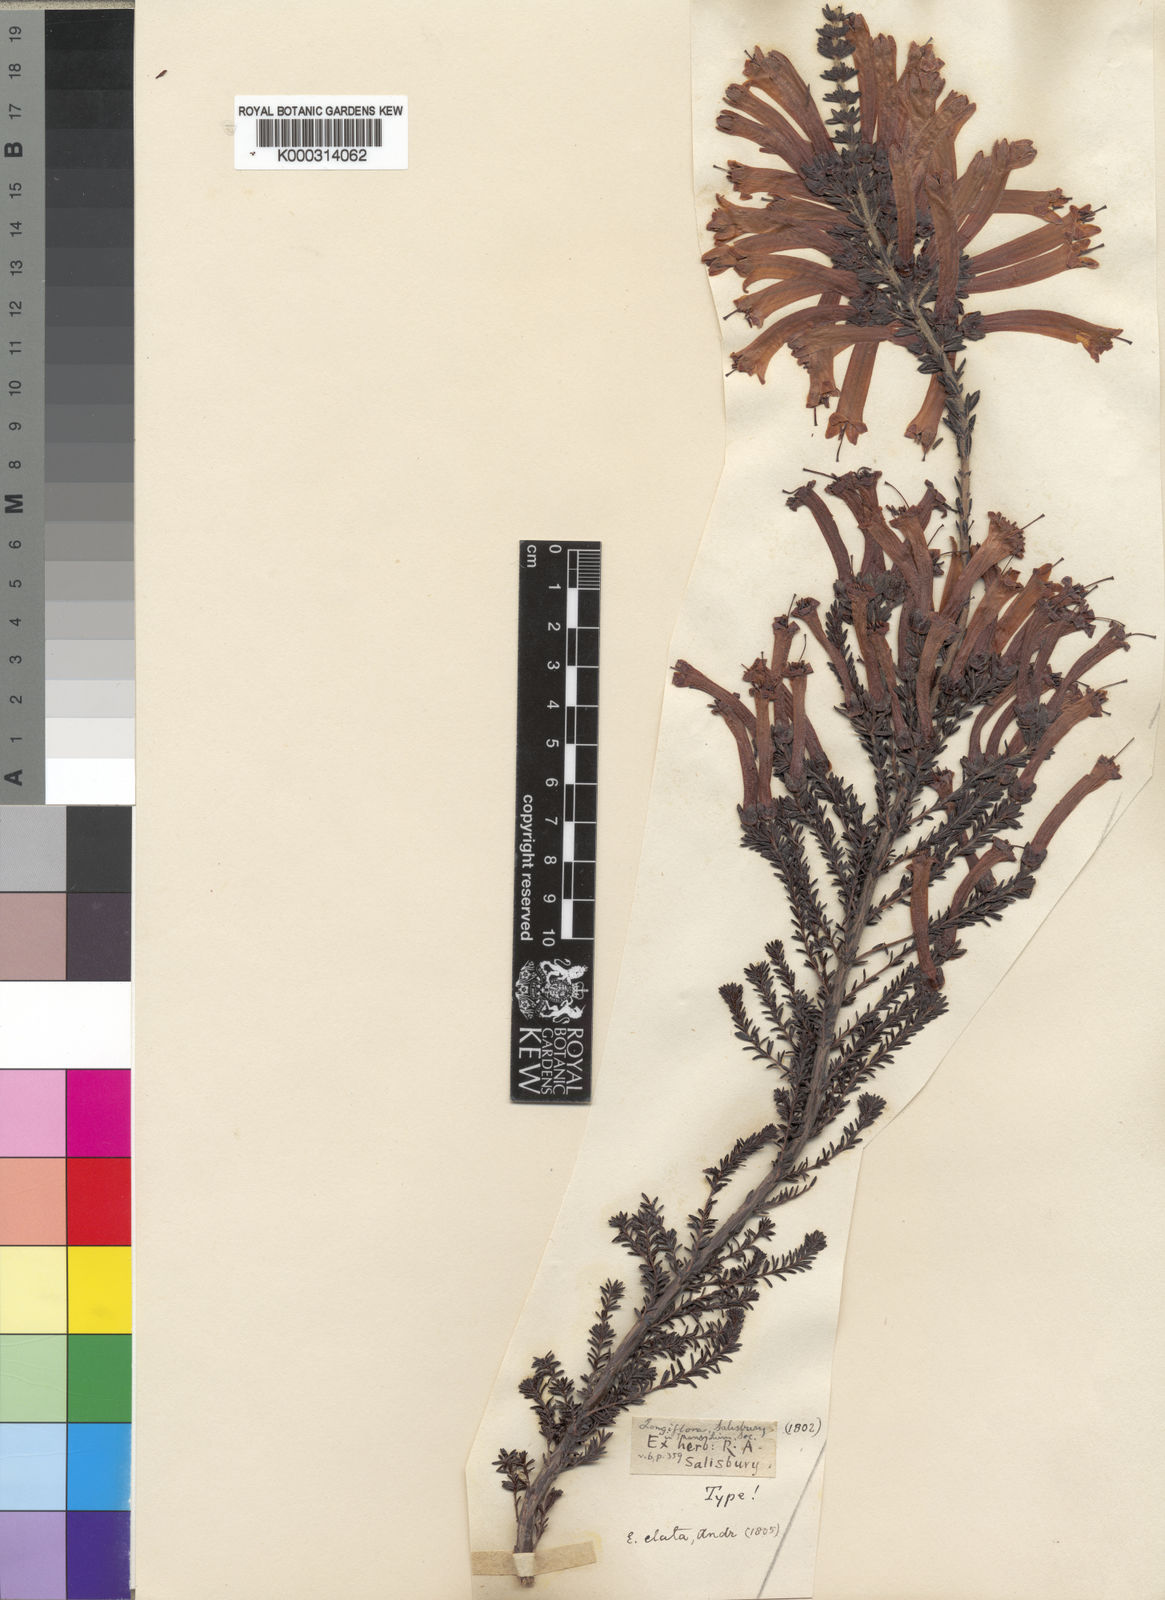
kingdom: Plantae
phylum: Tracheophyta
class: Magnoliopsida
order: Ericales
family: Ericaceae
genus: Erica
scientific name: Erica
